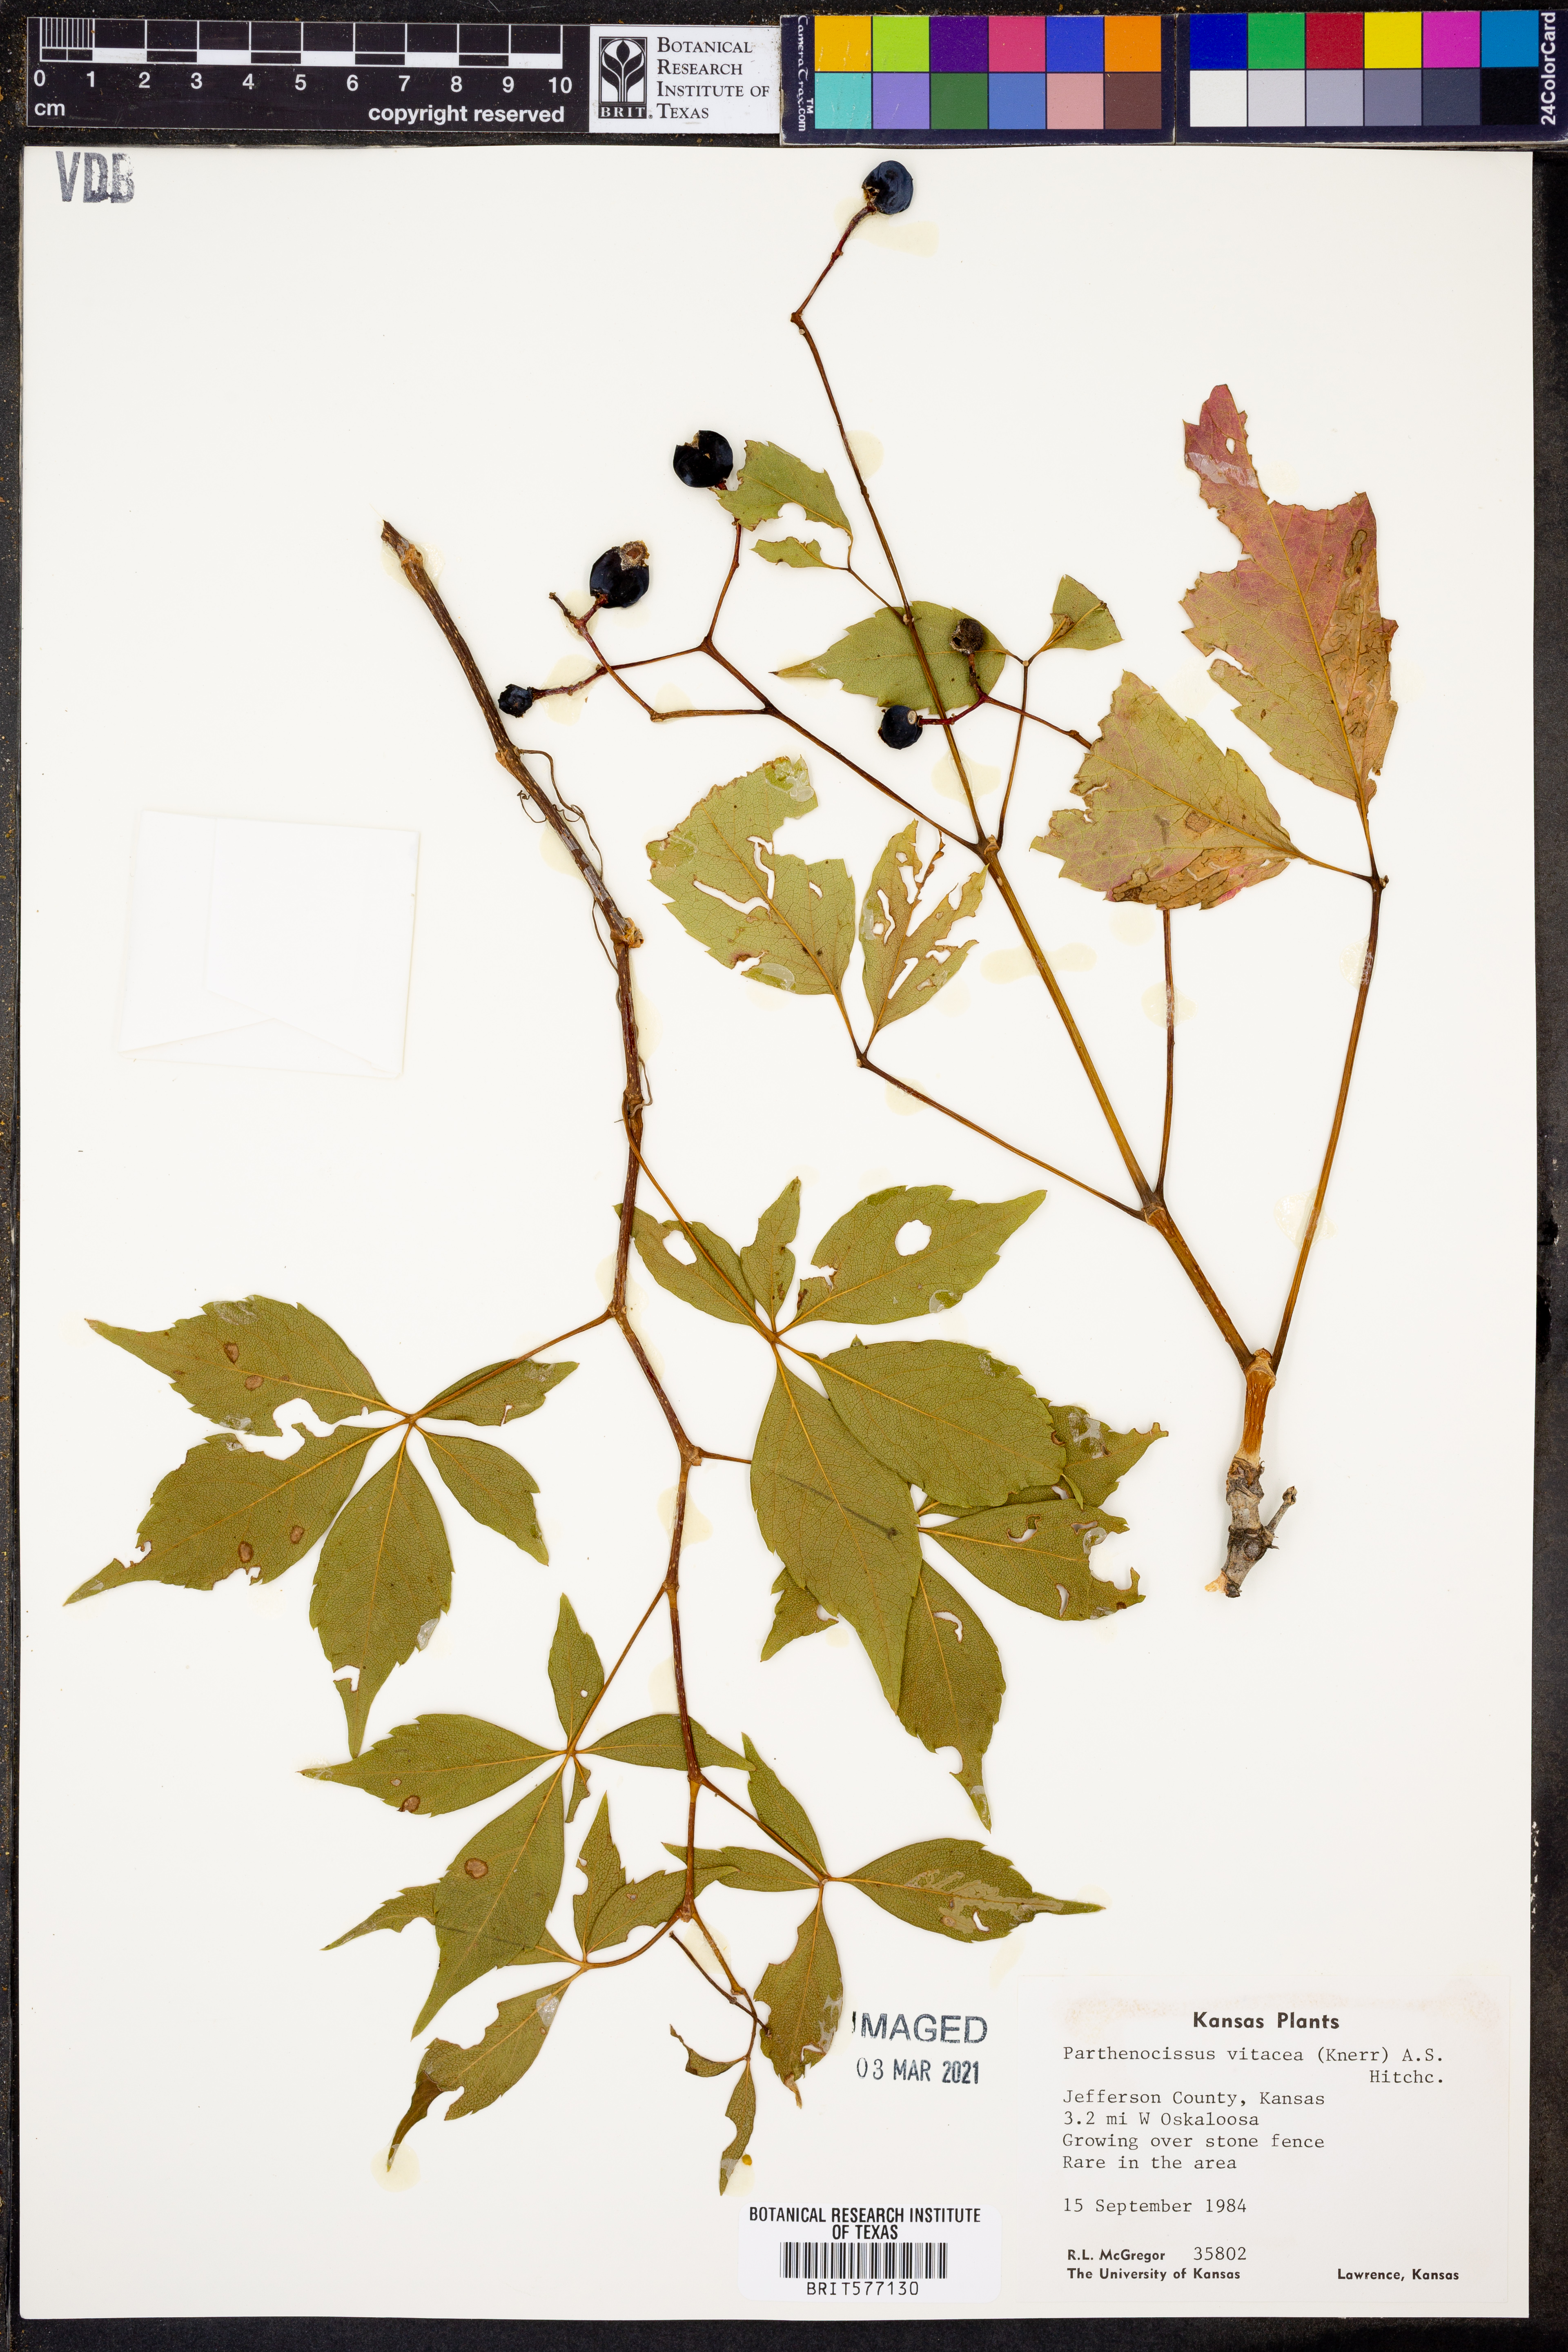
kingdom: Plantae
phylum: Tracheophyta
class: Magnoliopsida
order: Vitales
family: Vitaceae
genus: Parthenocissus
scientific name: Parthenocissus inserta
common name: False virginia-creeper
